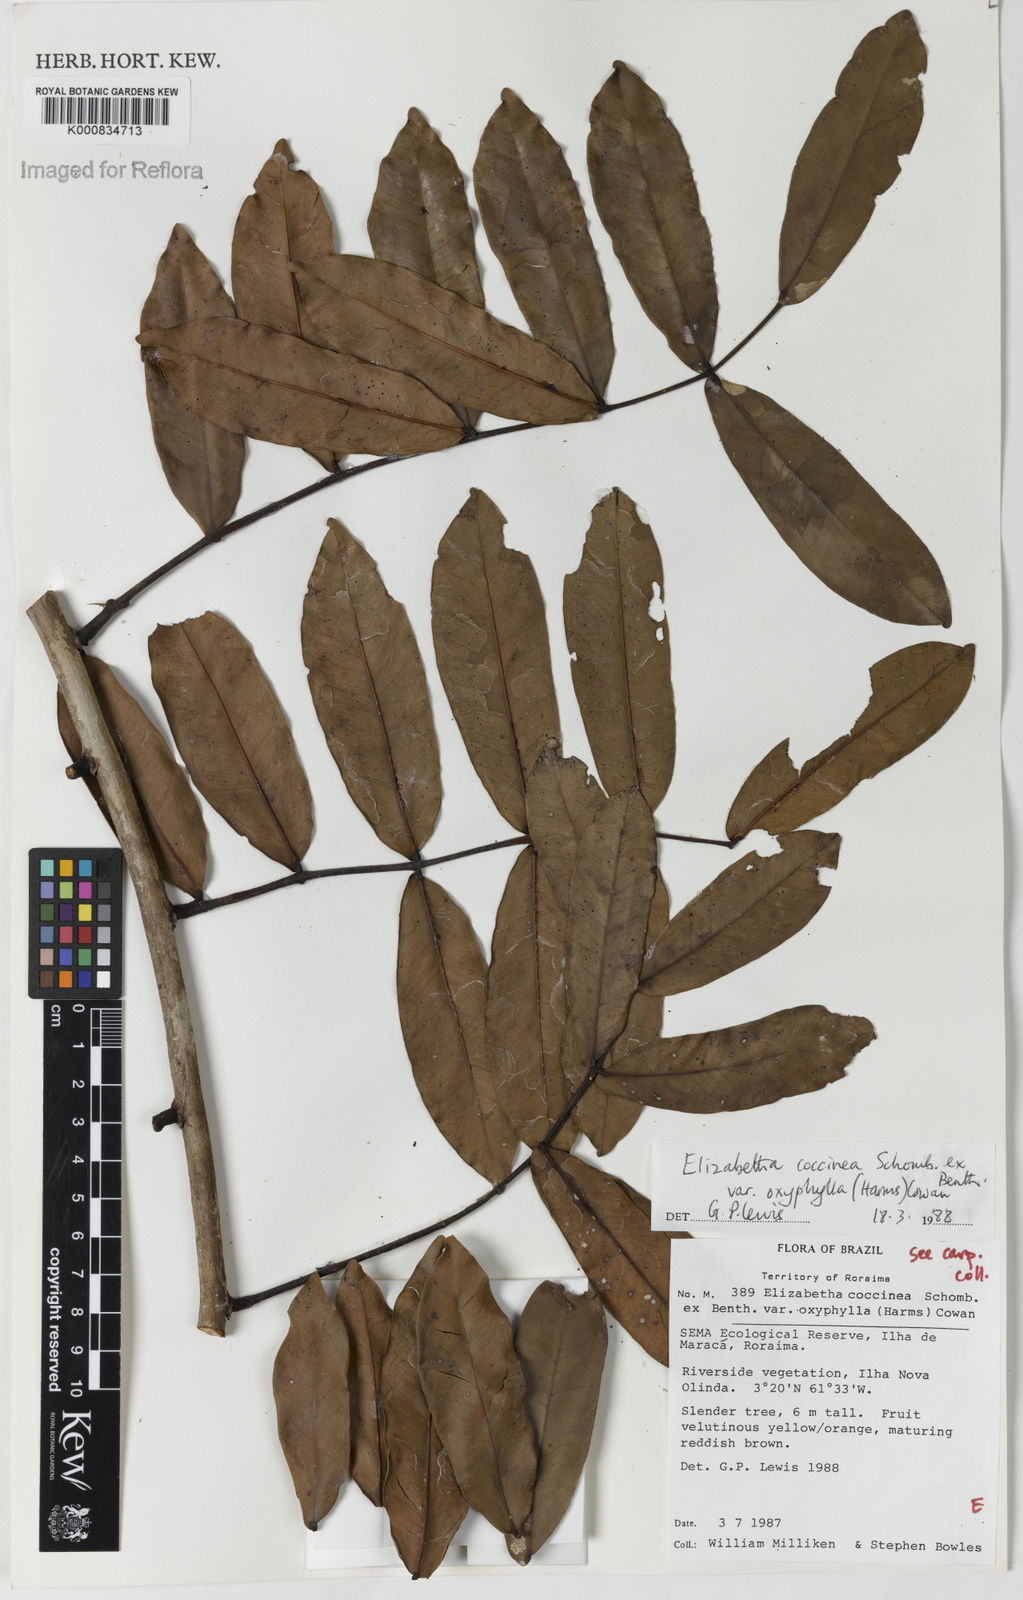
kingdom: Plantae
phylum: Tracheophyta
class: Magnoliopsida
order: Fabales
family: Fabaceae
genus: Paloue
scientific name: Paloue coccinea
